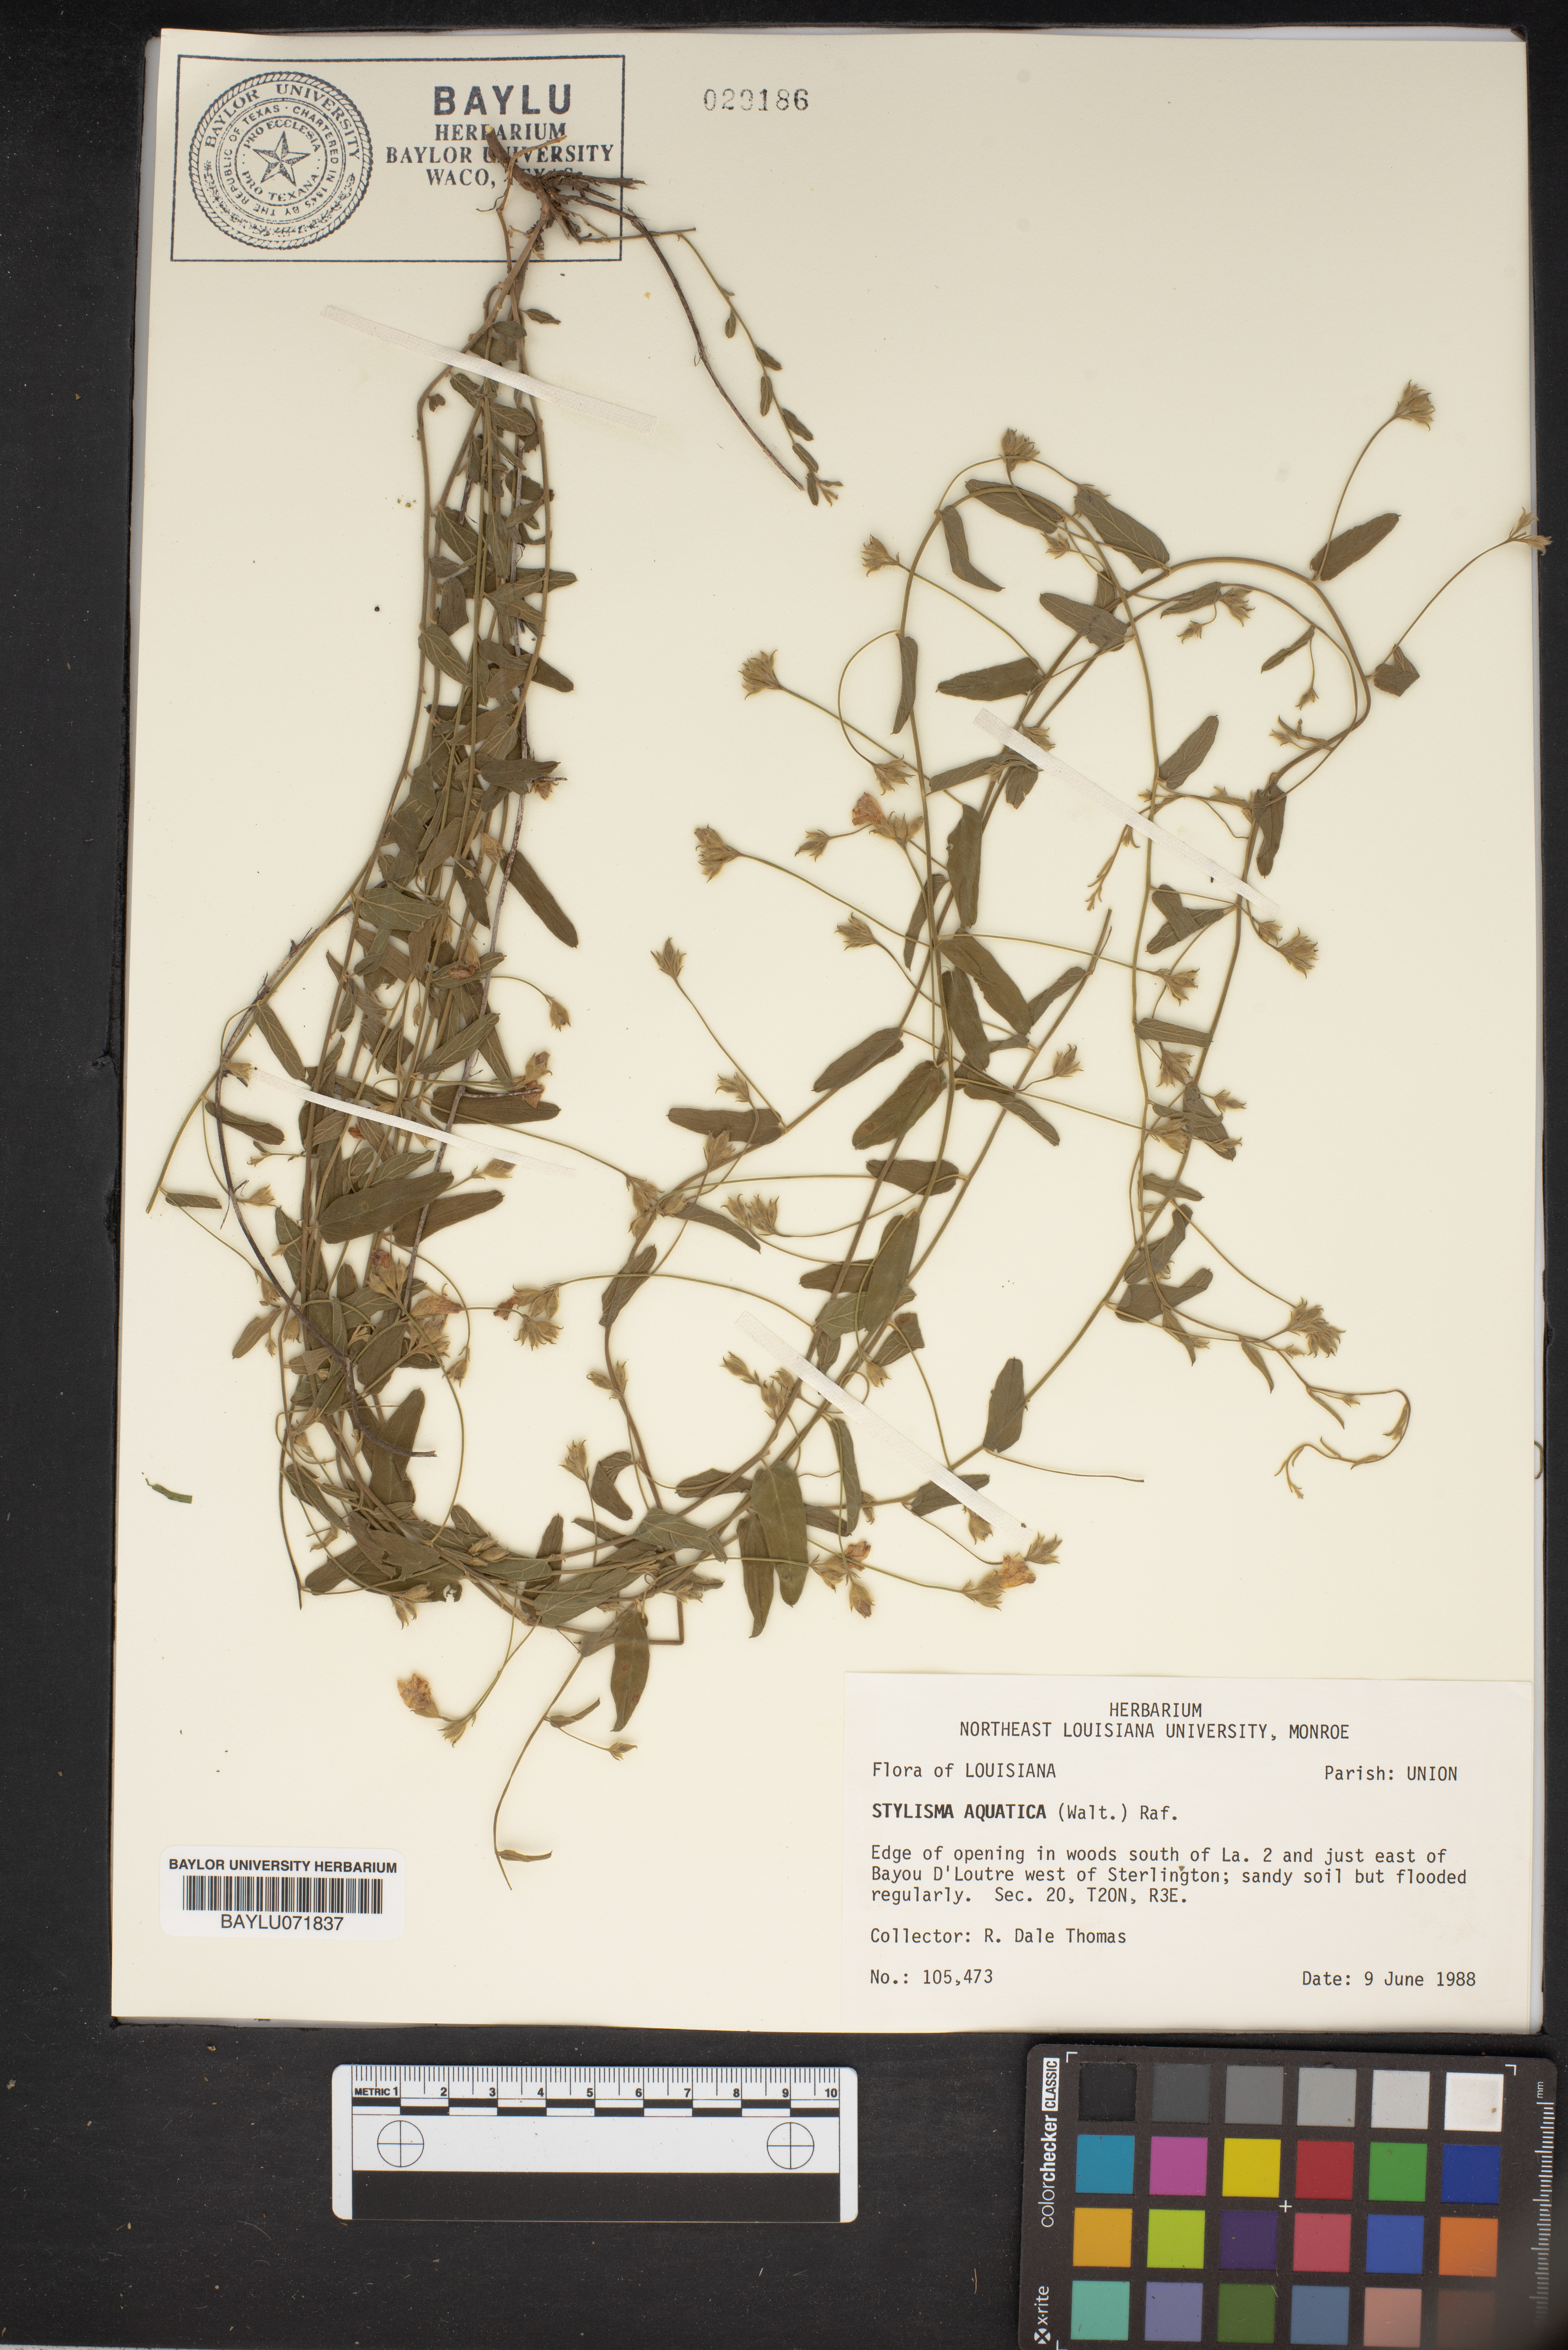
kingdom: Plantae
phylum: Tracheophyta
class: Magnoliopsida
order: Solanales
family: Convolvulaceae
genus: Stylisma
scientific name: Stylisma aquatica
